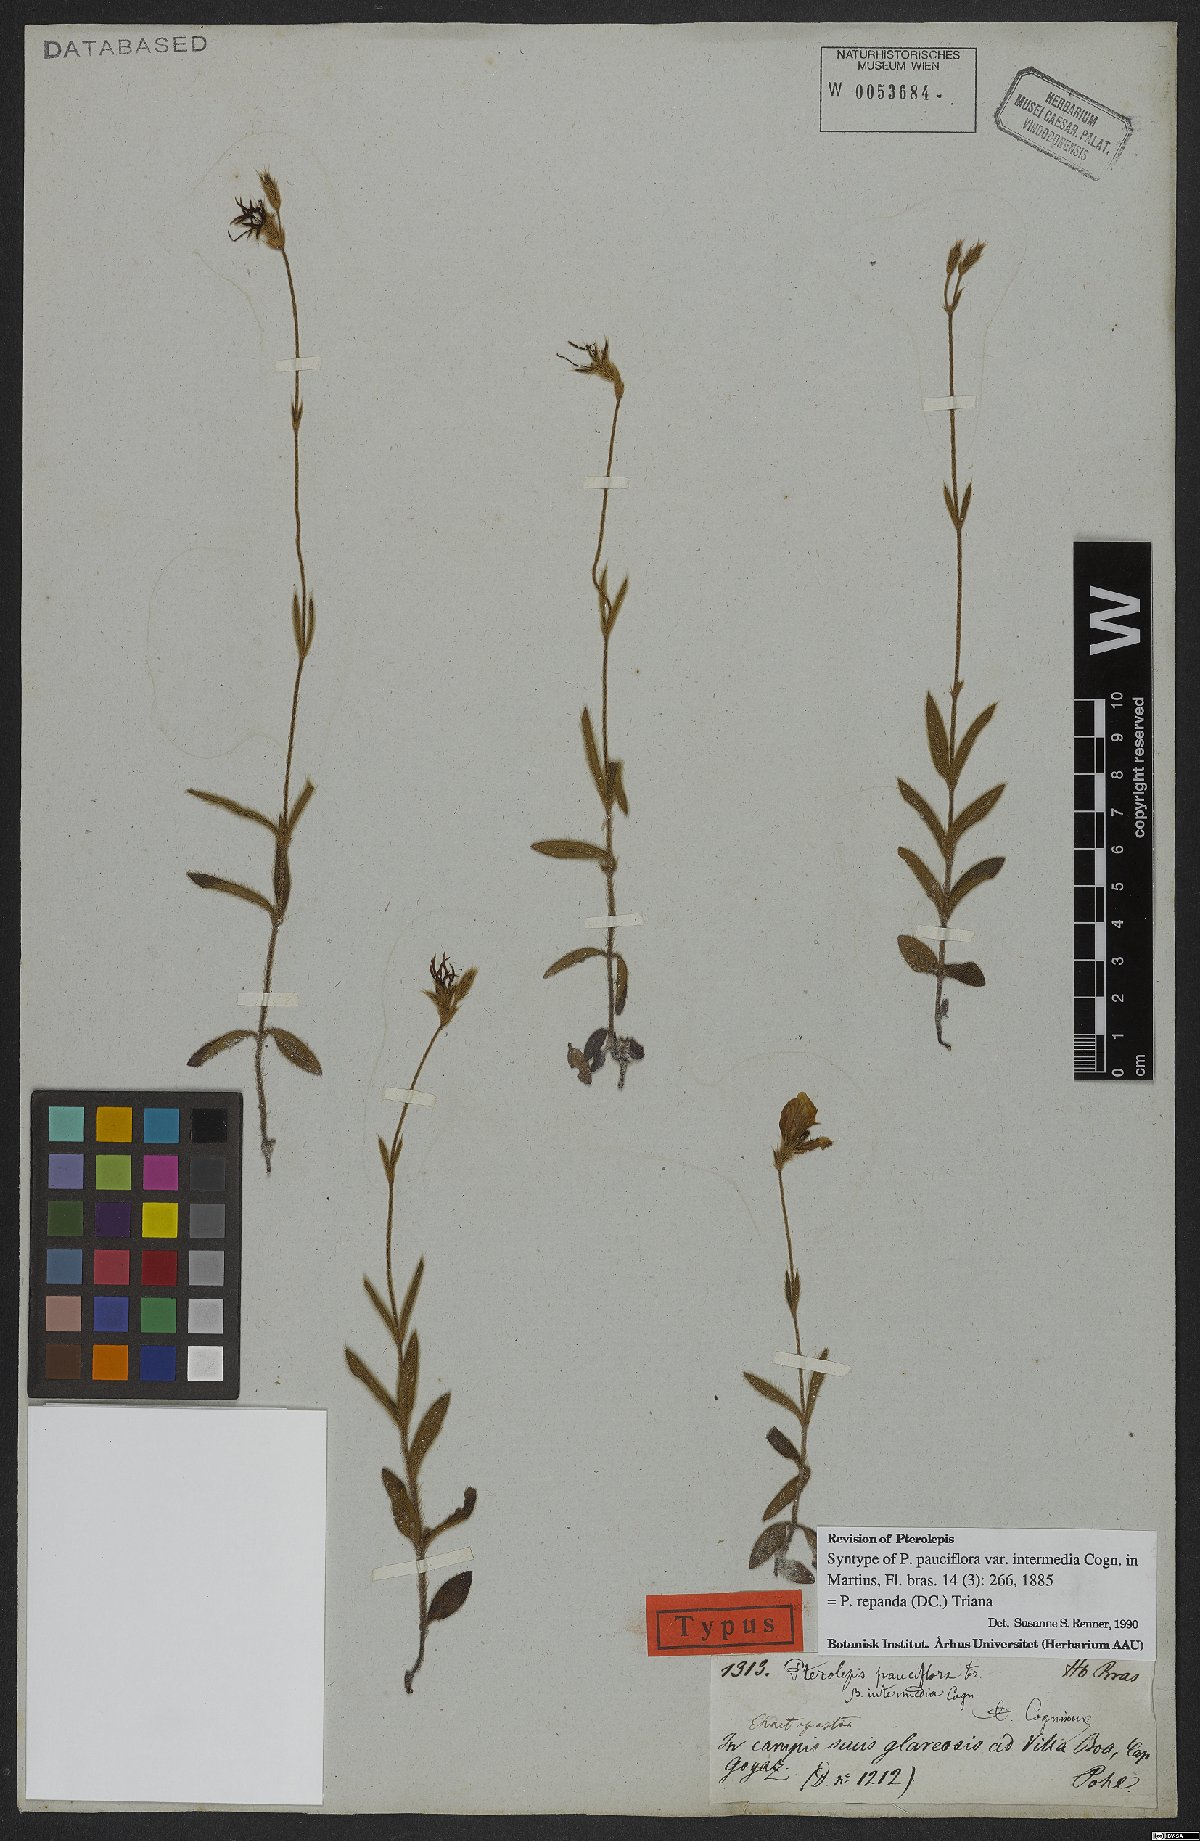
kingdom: Plantae
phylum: Tracheophyta
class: Magnoliopsida
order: Myrtales
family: Melastomataceae
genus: Pterolepis
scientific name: Pterolepis repanda
